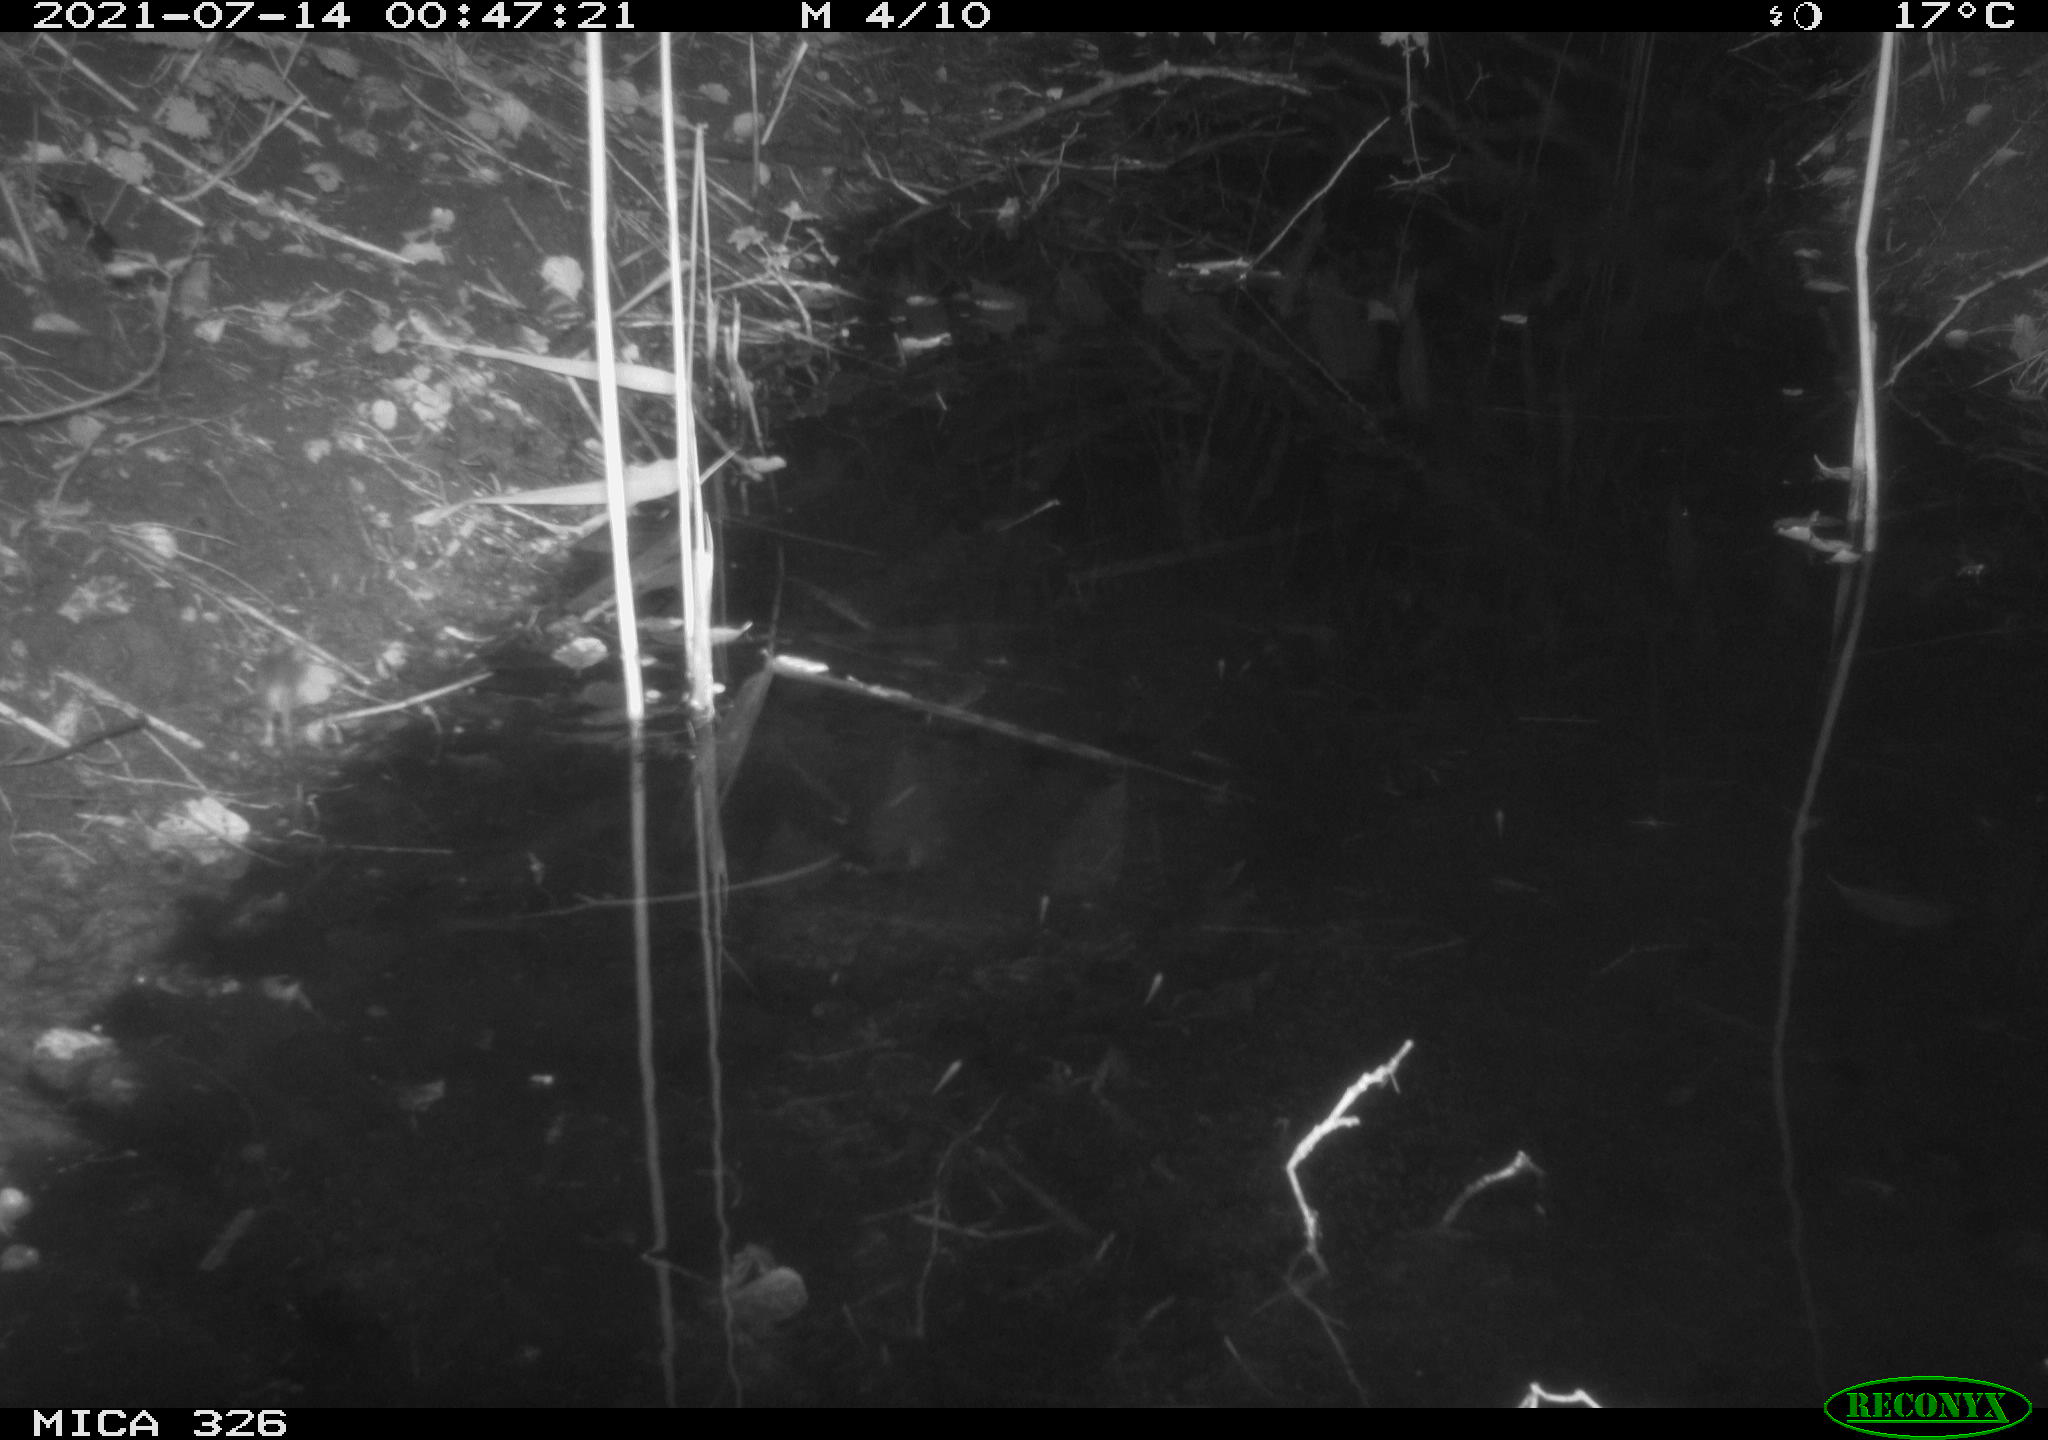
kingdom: Animalia
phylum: Chordata
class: Mammalia
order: Rodentia
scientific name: Rodentia
